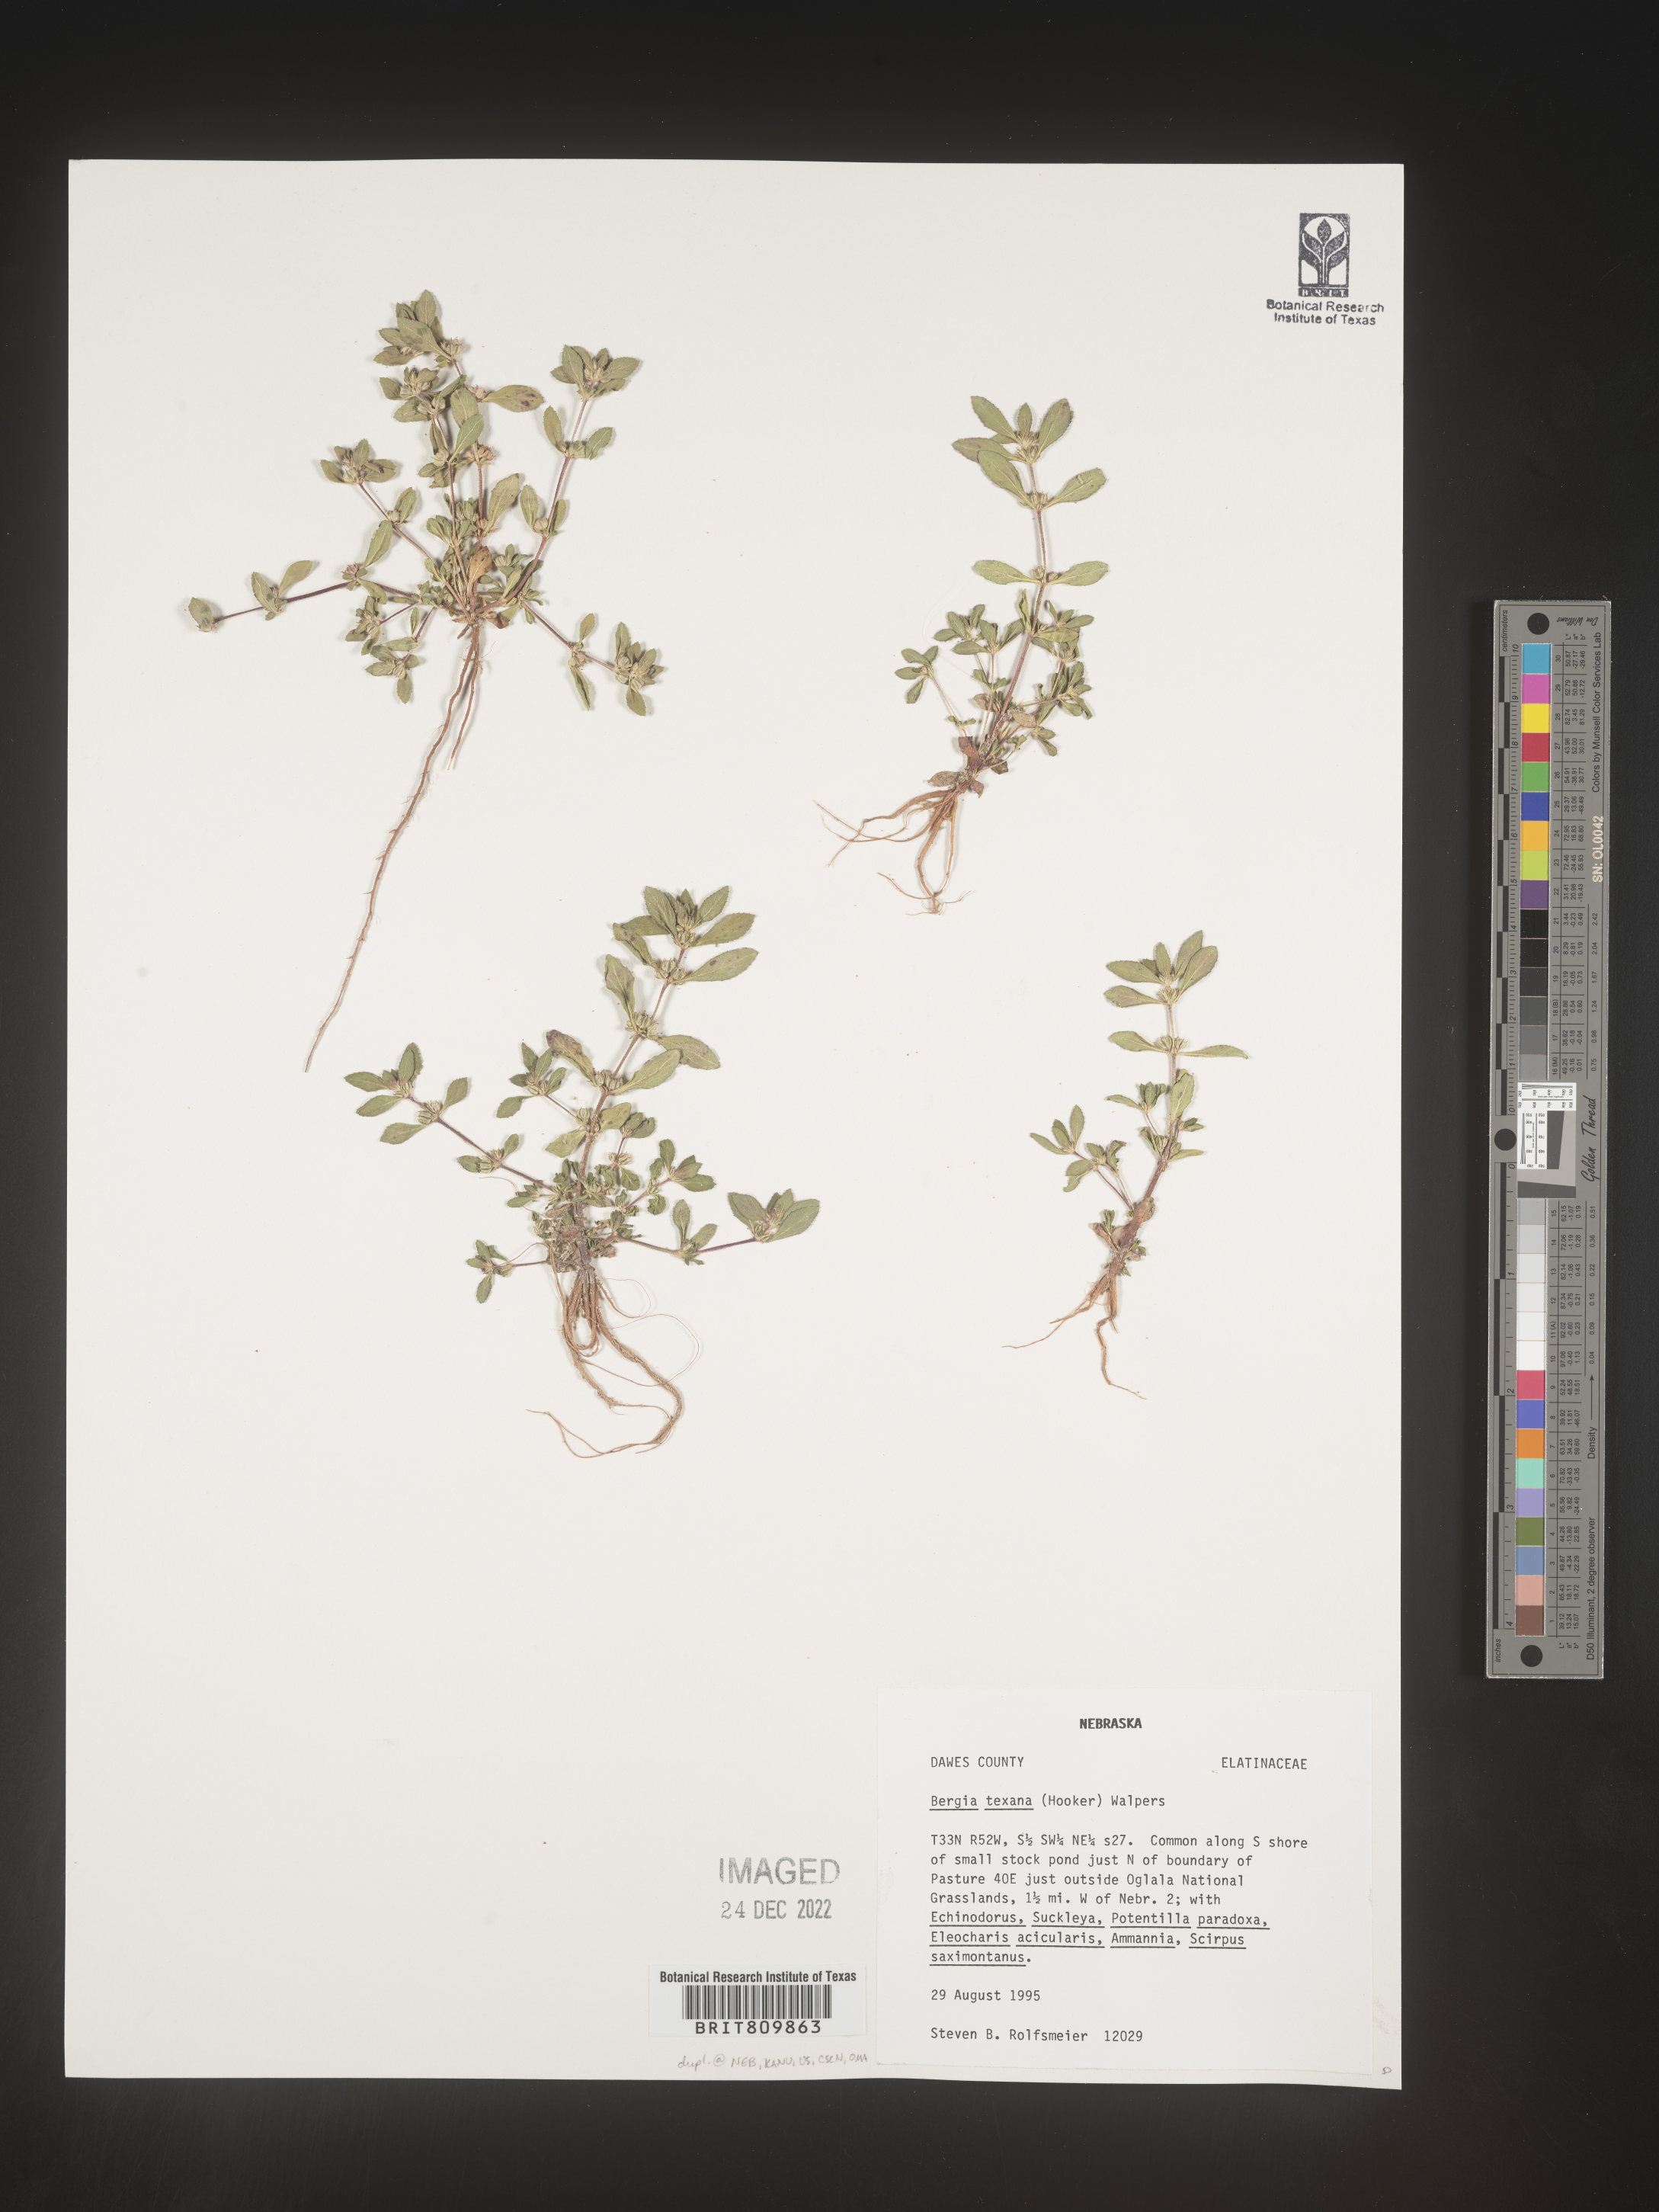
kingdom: Plantae
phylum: Tracheophyta
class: Magnoliopsida
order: Malpighiales
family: Elatinaceae
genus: Bergia
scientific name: Bergia
